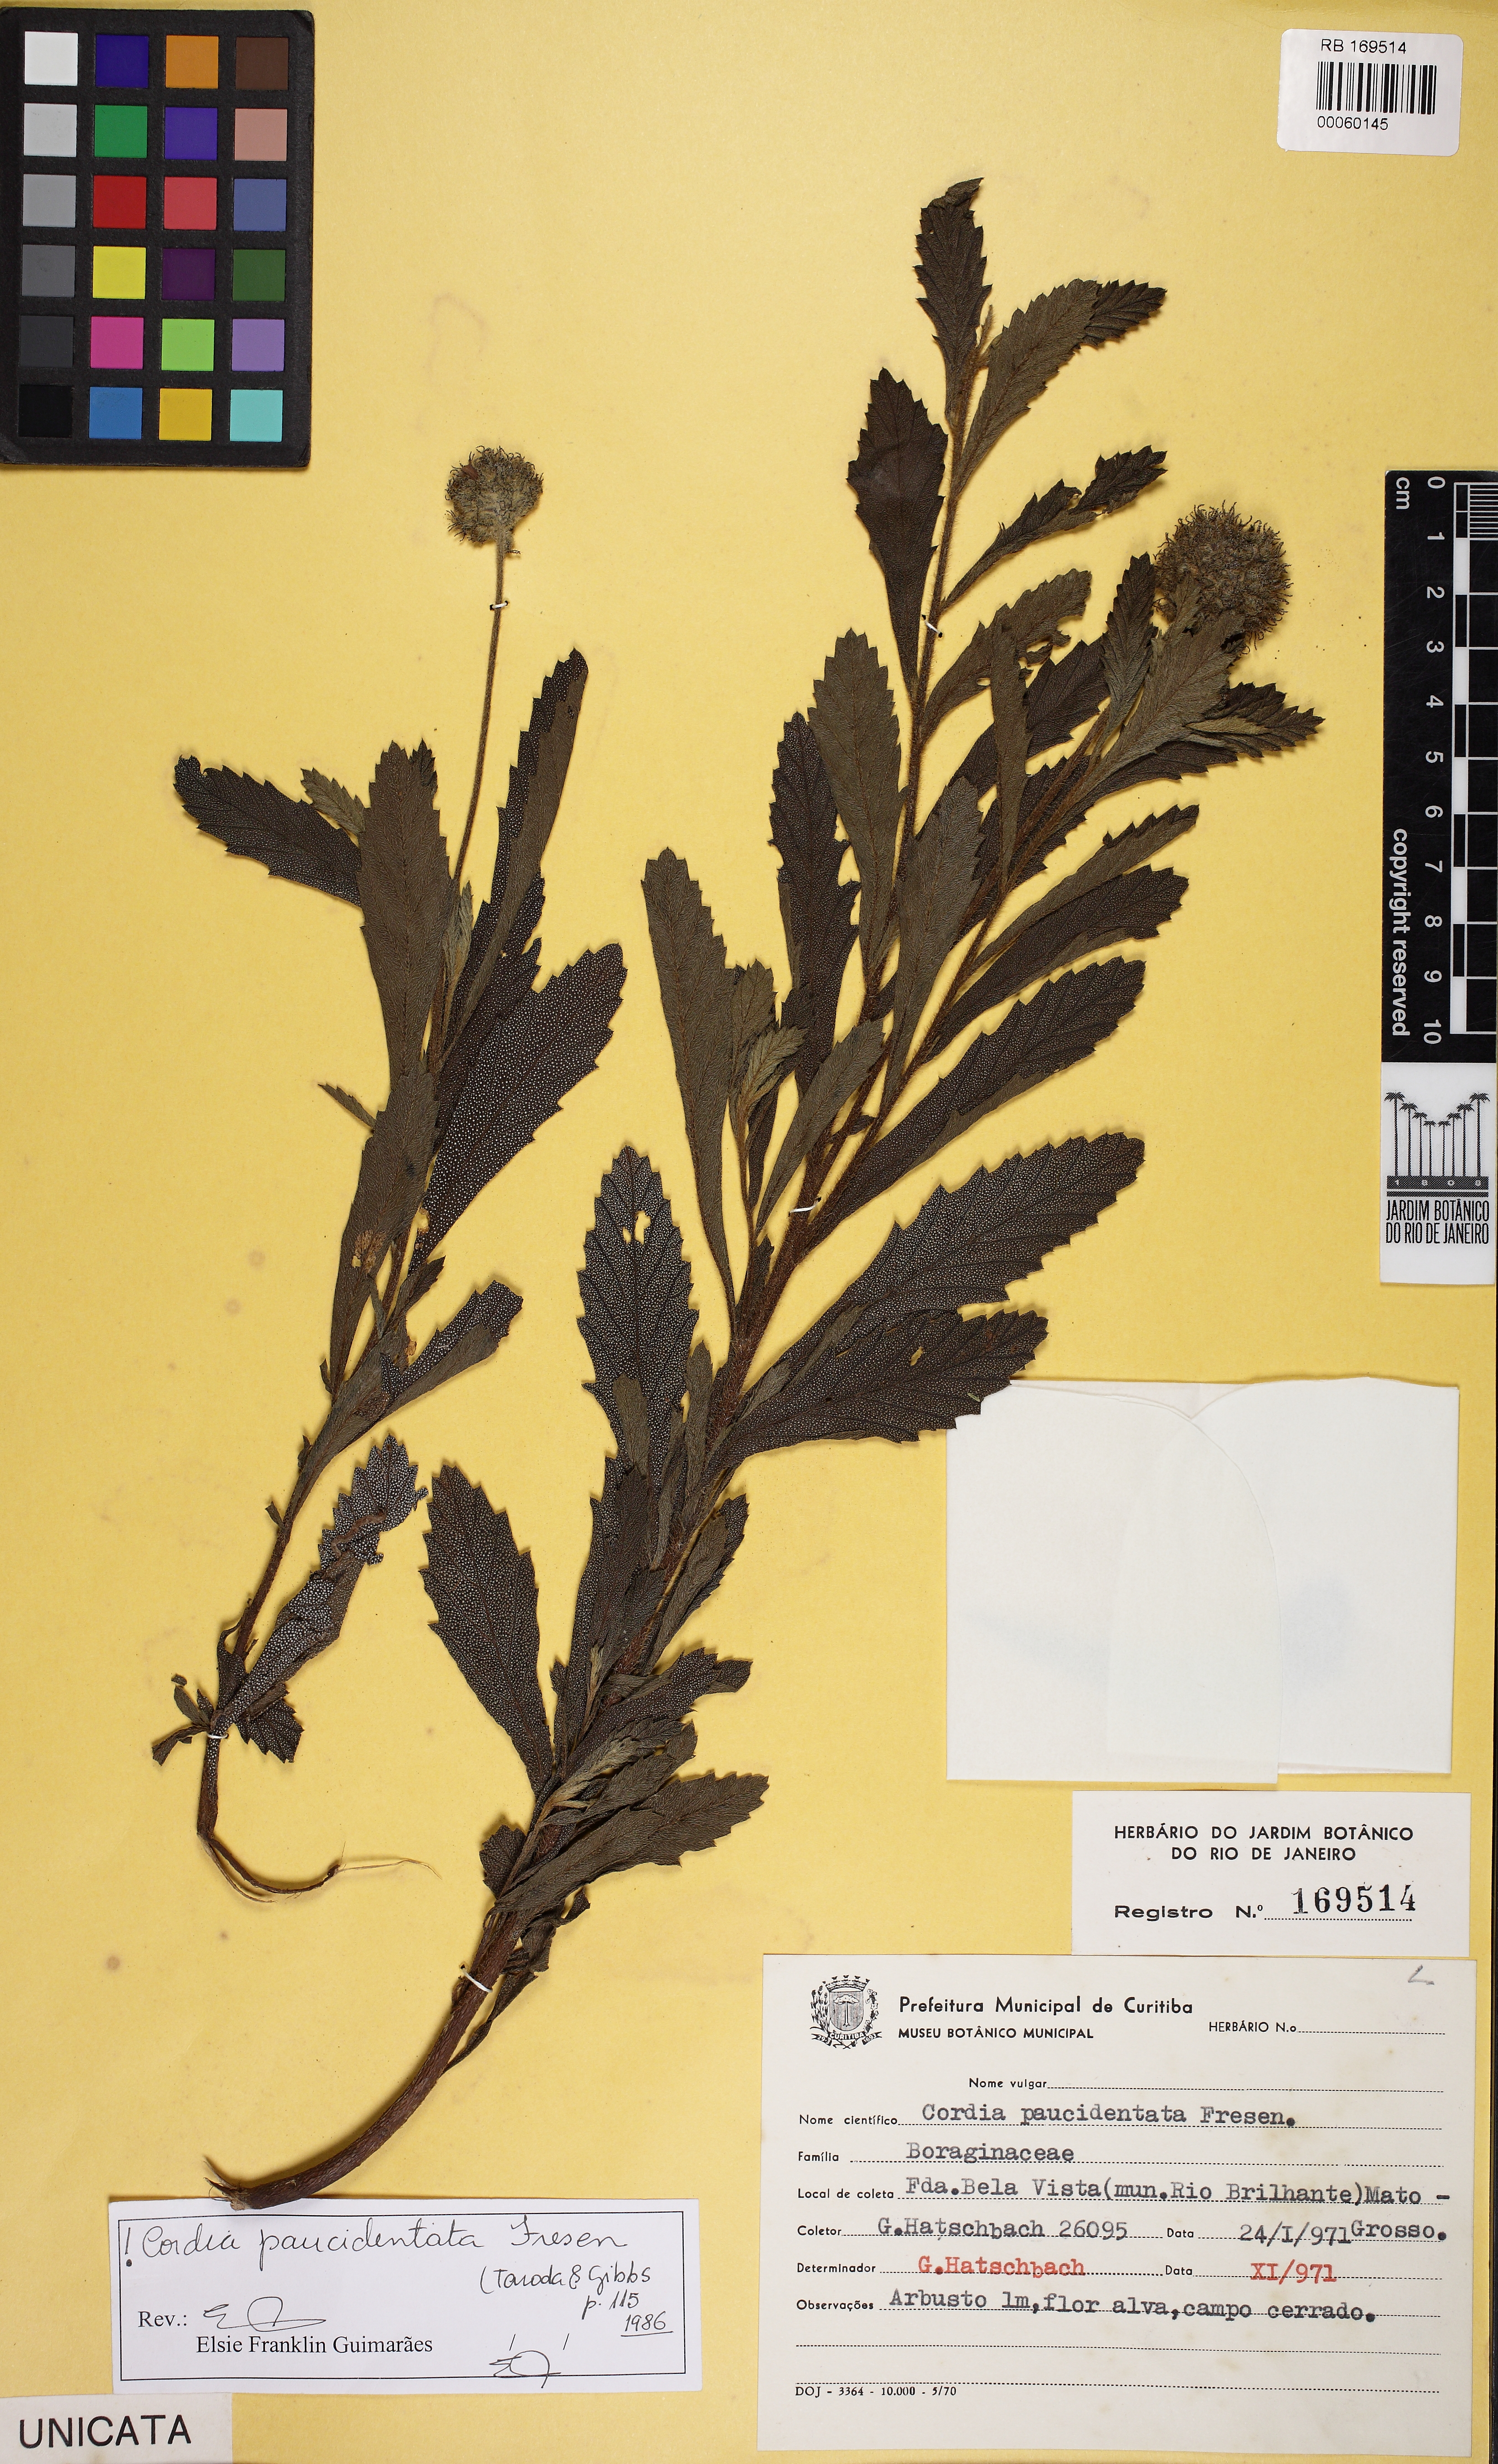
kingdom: Plantae
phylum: Tracheophyta
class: Magnoliopsida
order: Boraginales
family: Cordiaceae
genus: Varronia
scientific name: Varronia paucidentata
